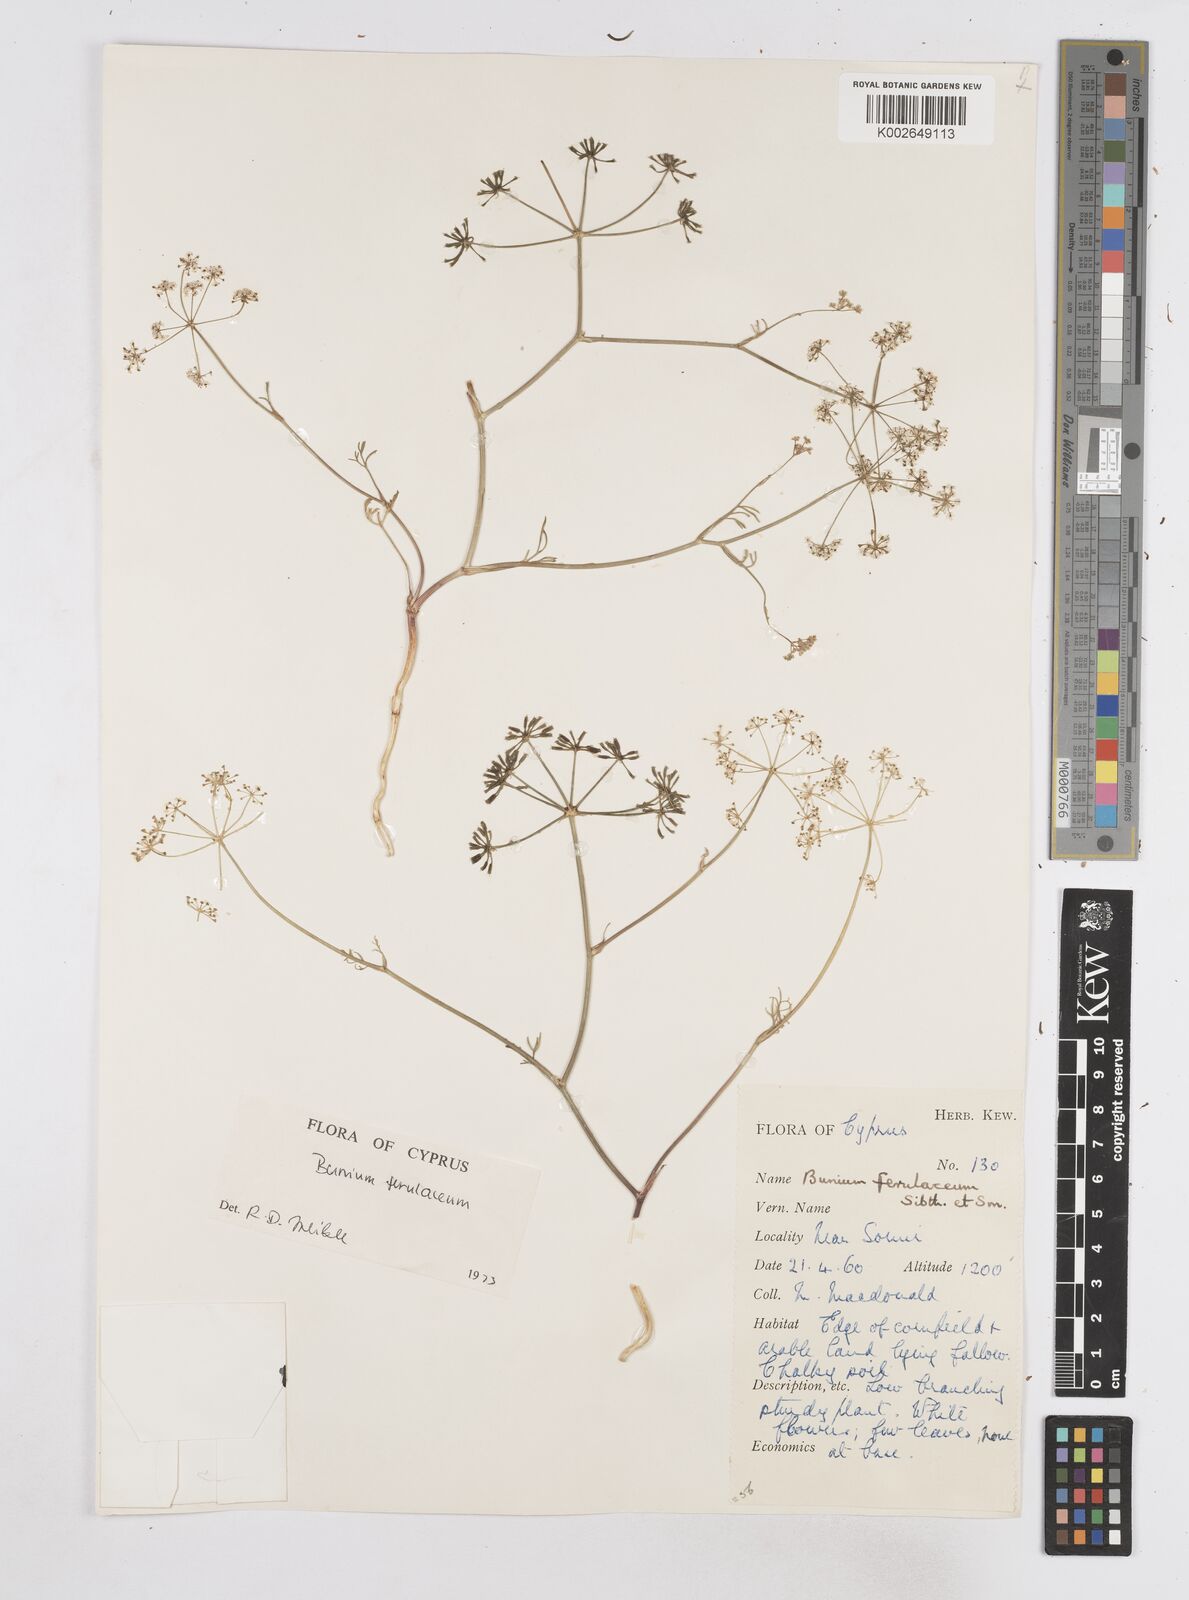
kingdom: Plantae
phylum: Tracheophyta
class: Magnoliopsida
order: Apiales
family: Apiaceae
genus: Bunium
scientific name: Bunium ferulaceum
